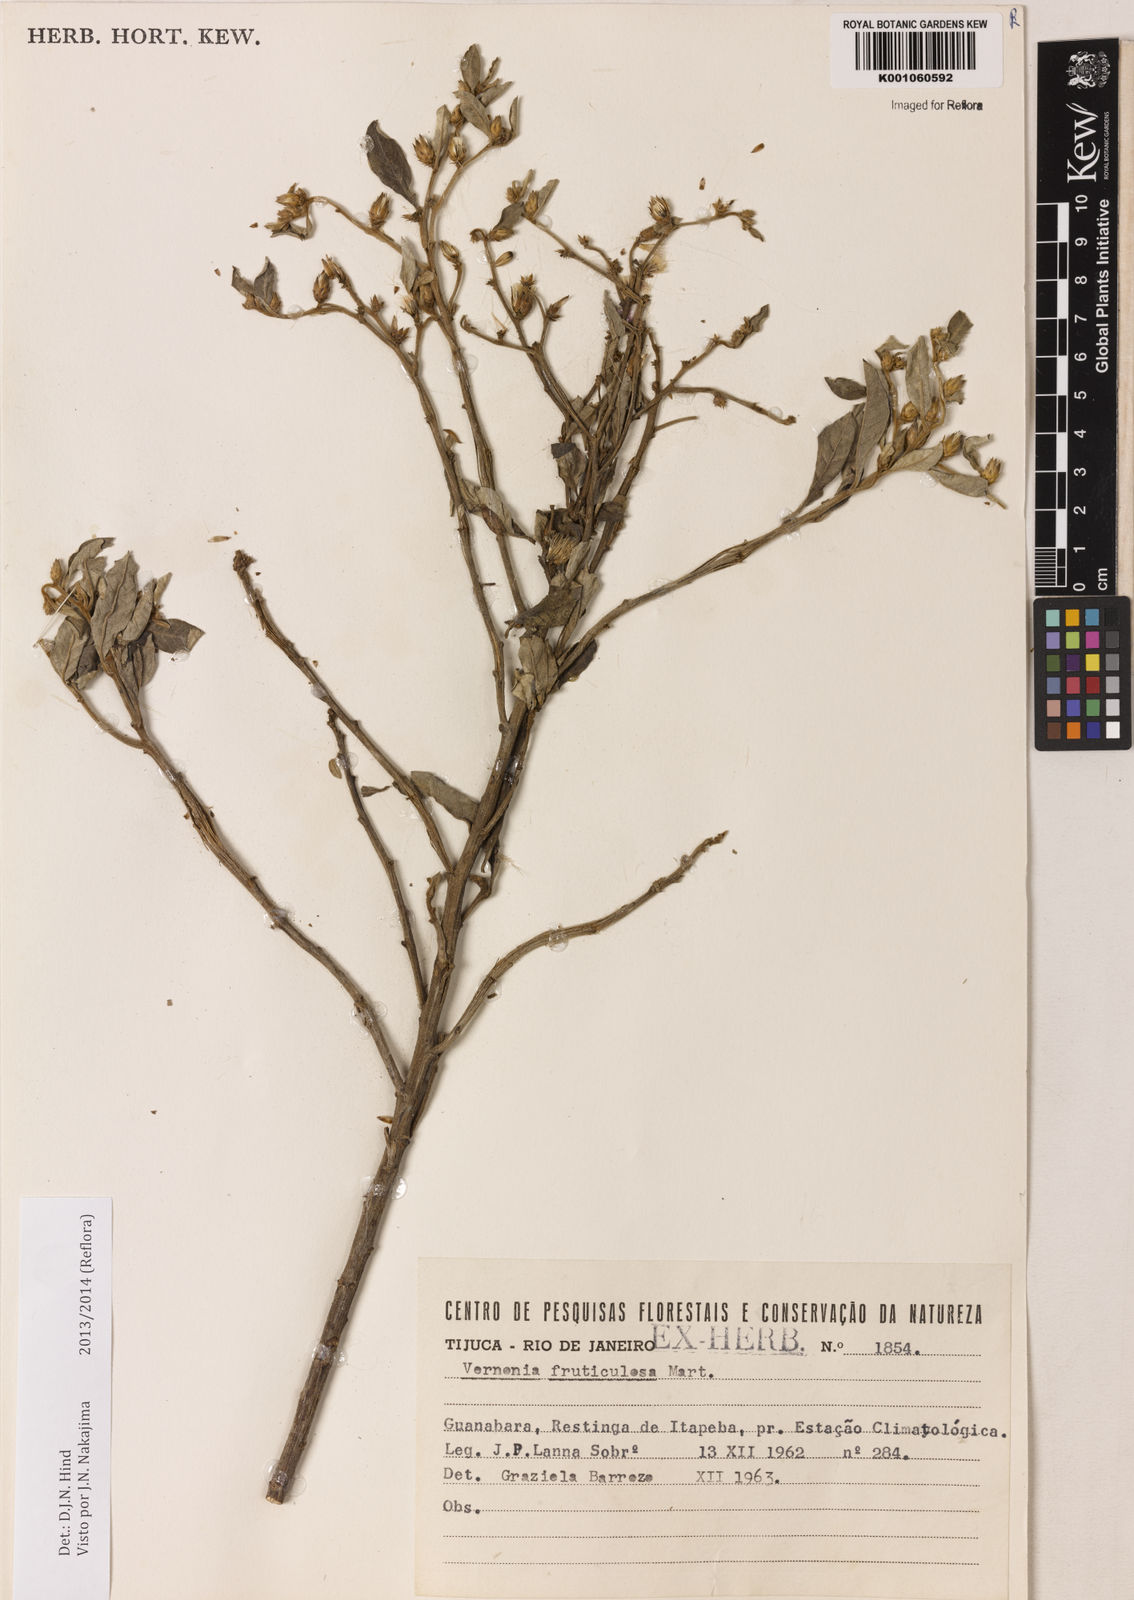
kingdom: Plantae
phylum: Tracheophyta
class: Magnoliopsida
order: Asterales
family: Asteraceae
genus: Lepidaploa
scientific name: Lepidaploa rufogrisea
